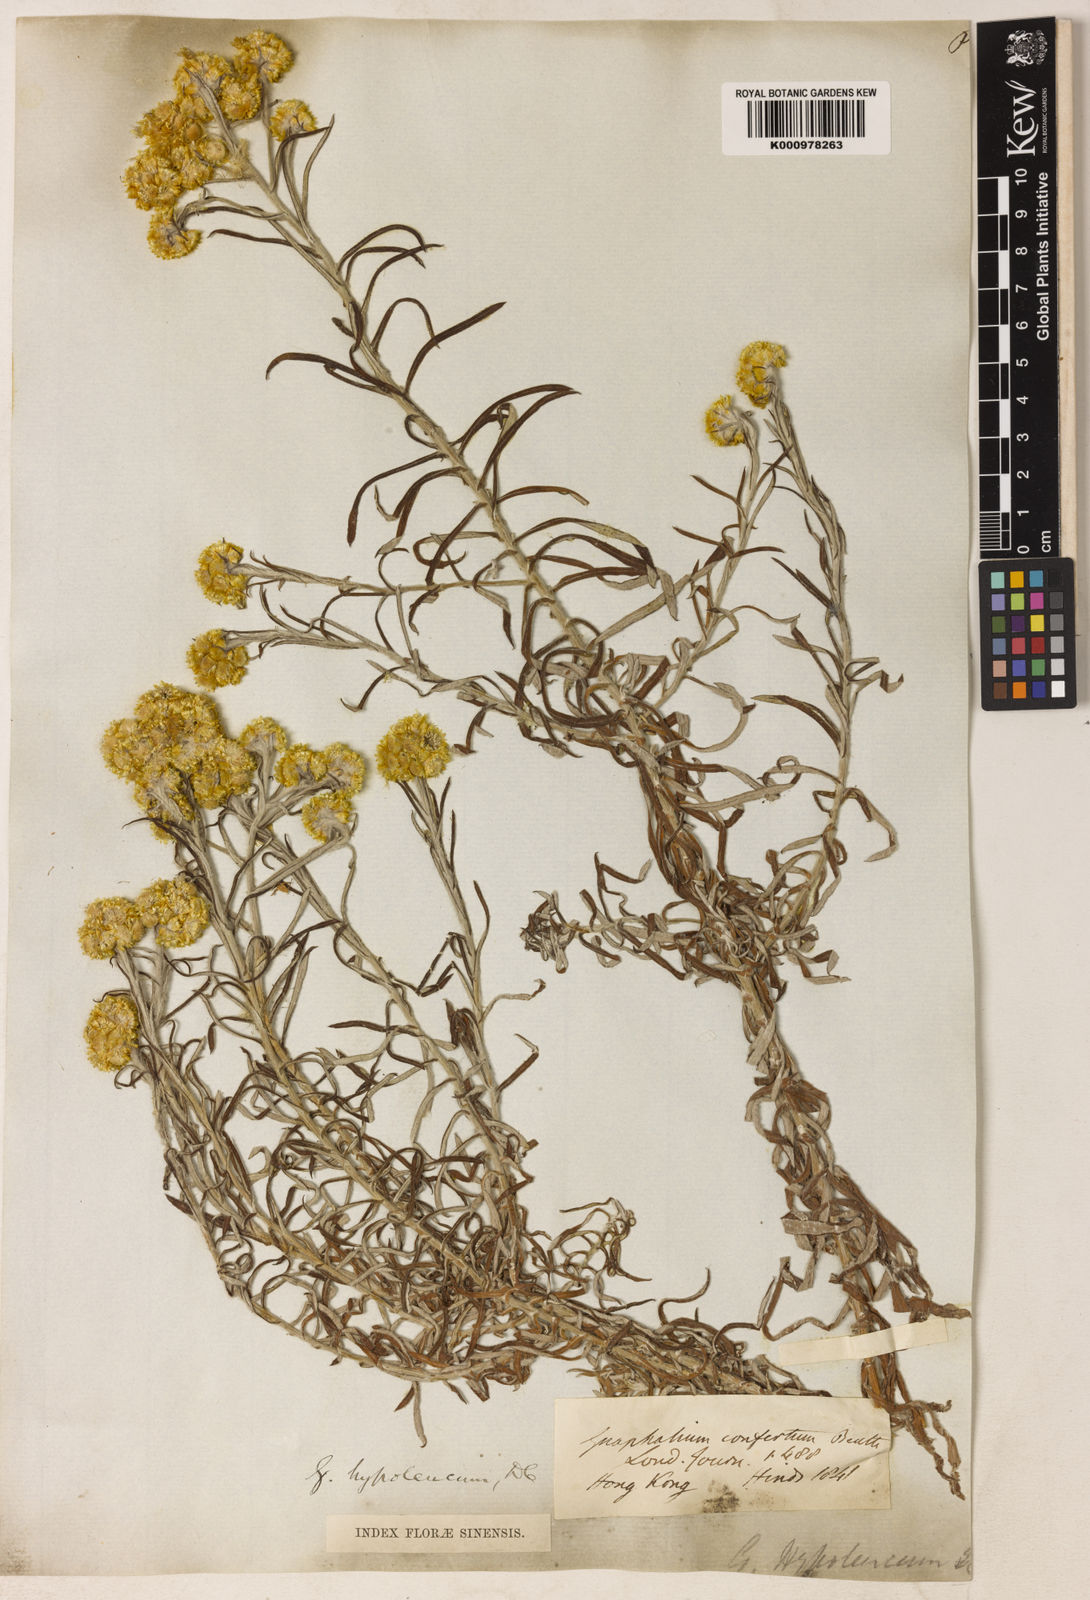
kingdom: Plantae
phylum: Tracheophyta
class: Magnoliopsida
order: Asterales
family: Asteraceae
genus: Pseudognaphalium
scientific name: Pseudognaphalium hypoleucum
